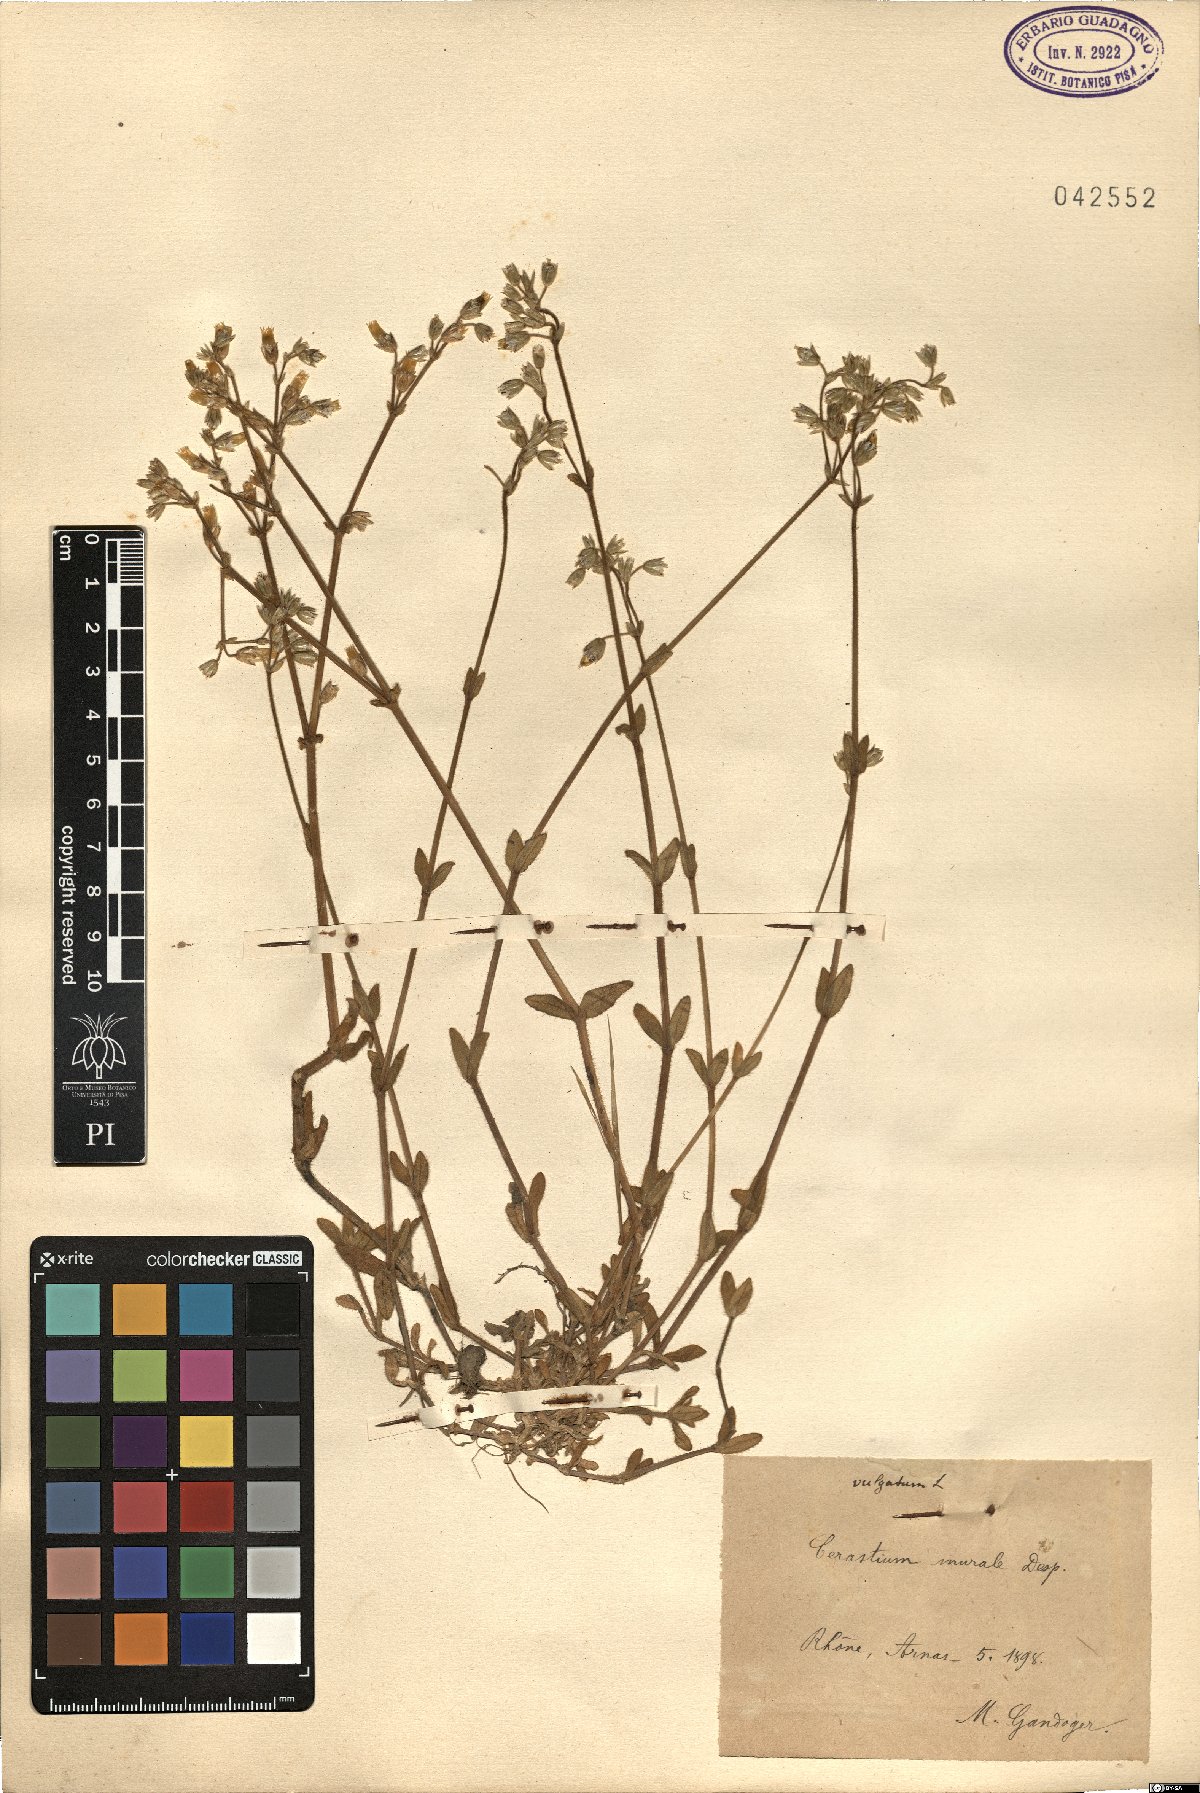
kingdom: Plantae
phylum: Tracheophyta
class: Magnoliopsida
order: Caryophyllales
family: Caryophyllaceae
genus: Cerastium
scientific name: Cerastium
